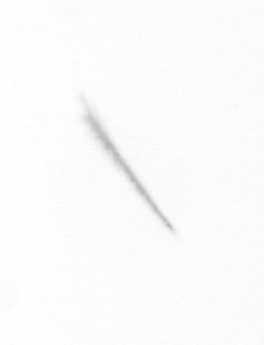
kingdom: Chromista
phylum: Ochrophyta
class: Bacillariophyceae
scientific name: Bacillariophyceae
